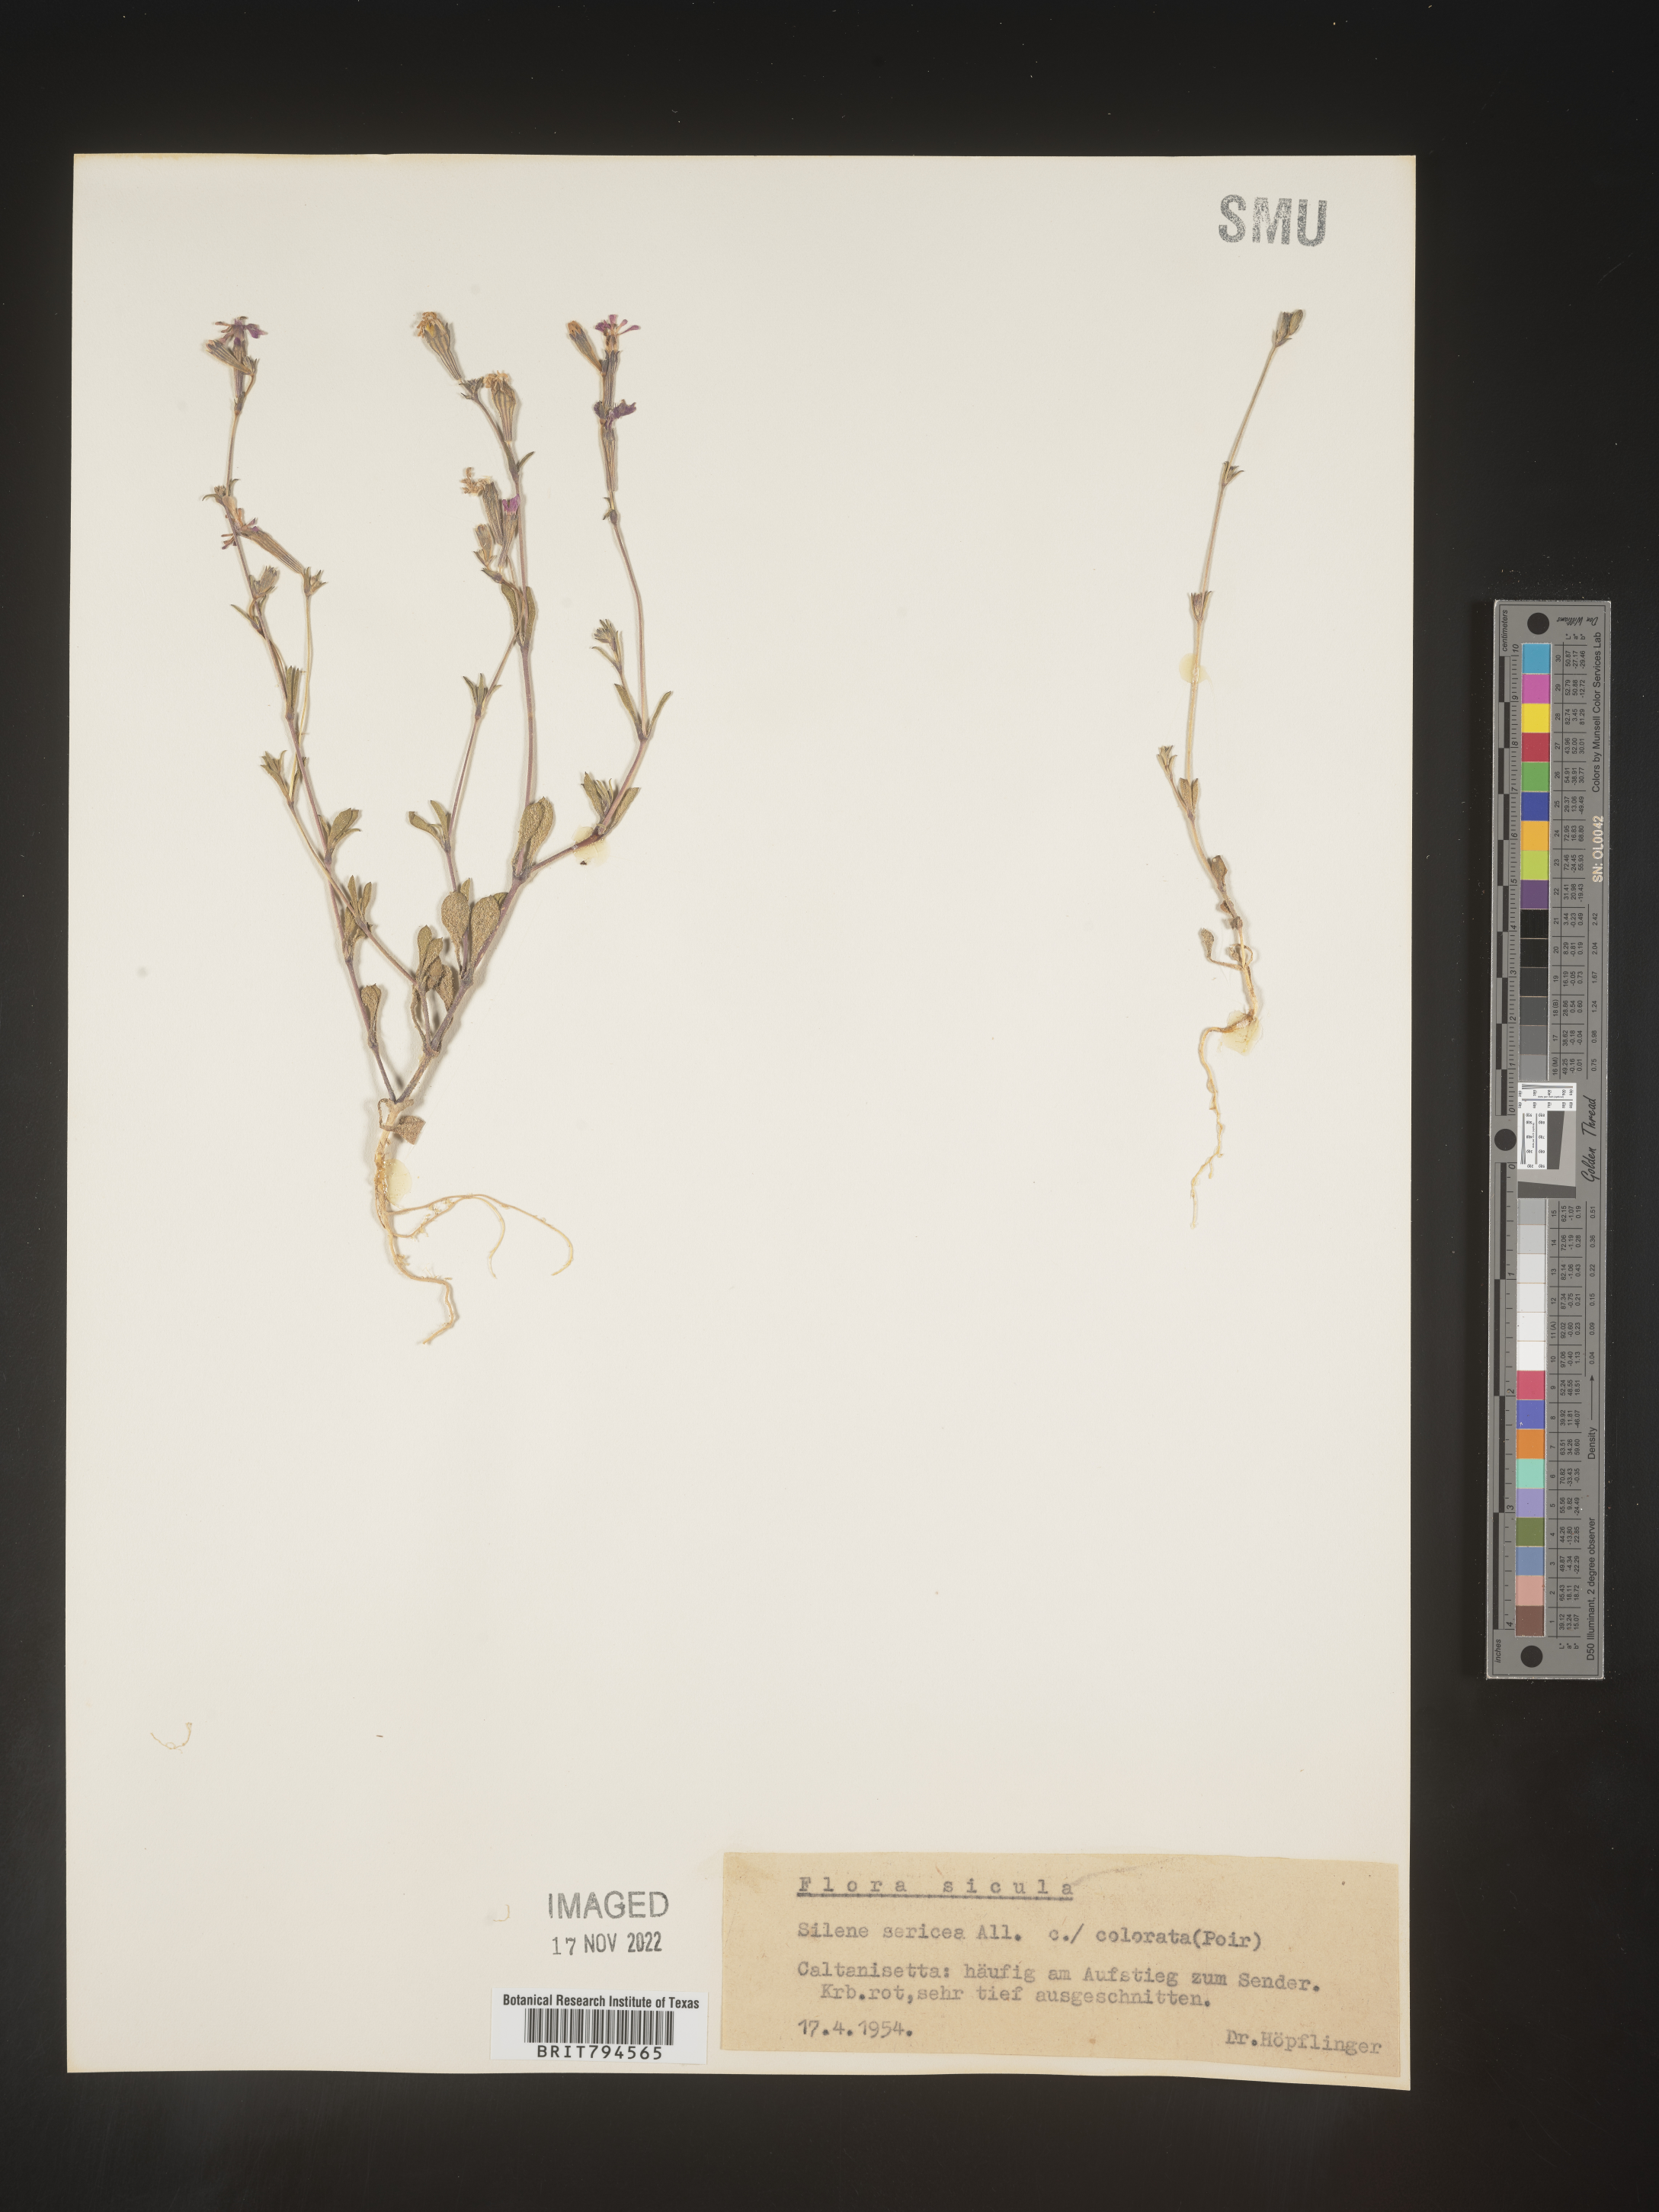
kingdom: Plantae
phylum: Tracheophyta
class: Magnoliopsida
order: Caryophyllales
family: Caryophyllaceae
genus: Silene
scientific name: Silene sericea
